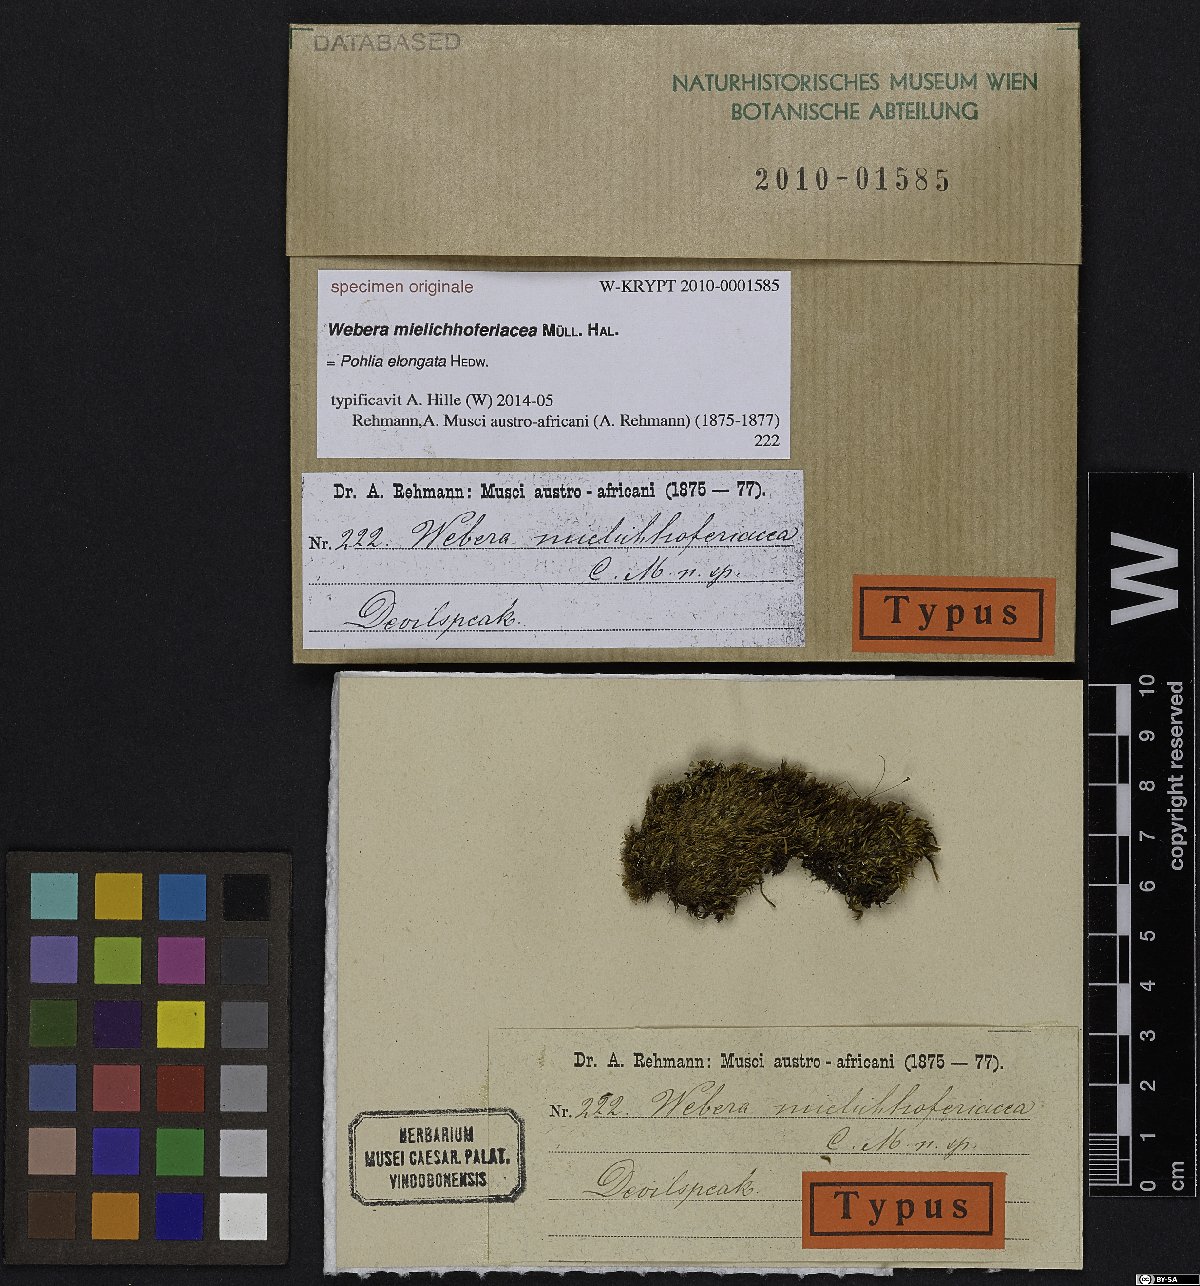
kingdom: Plantae
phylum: Bryophyta
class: Bryopsida
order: Bryales
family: Bryaceae
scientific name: Bryaceae
